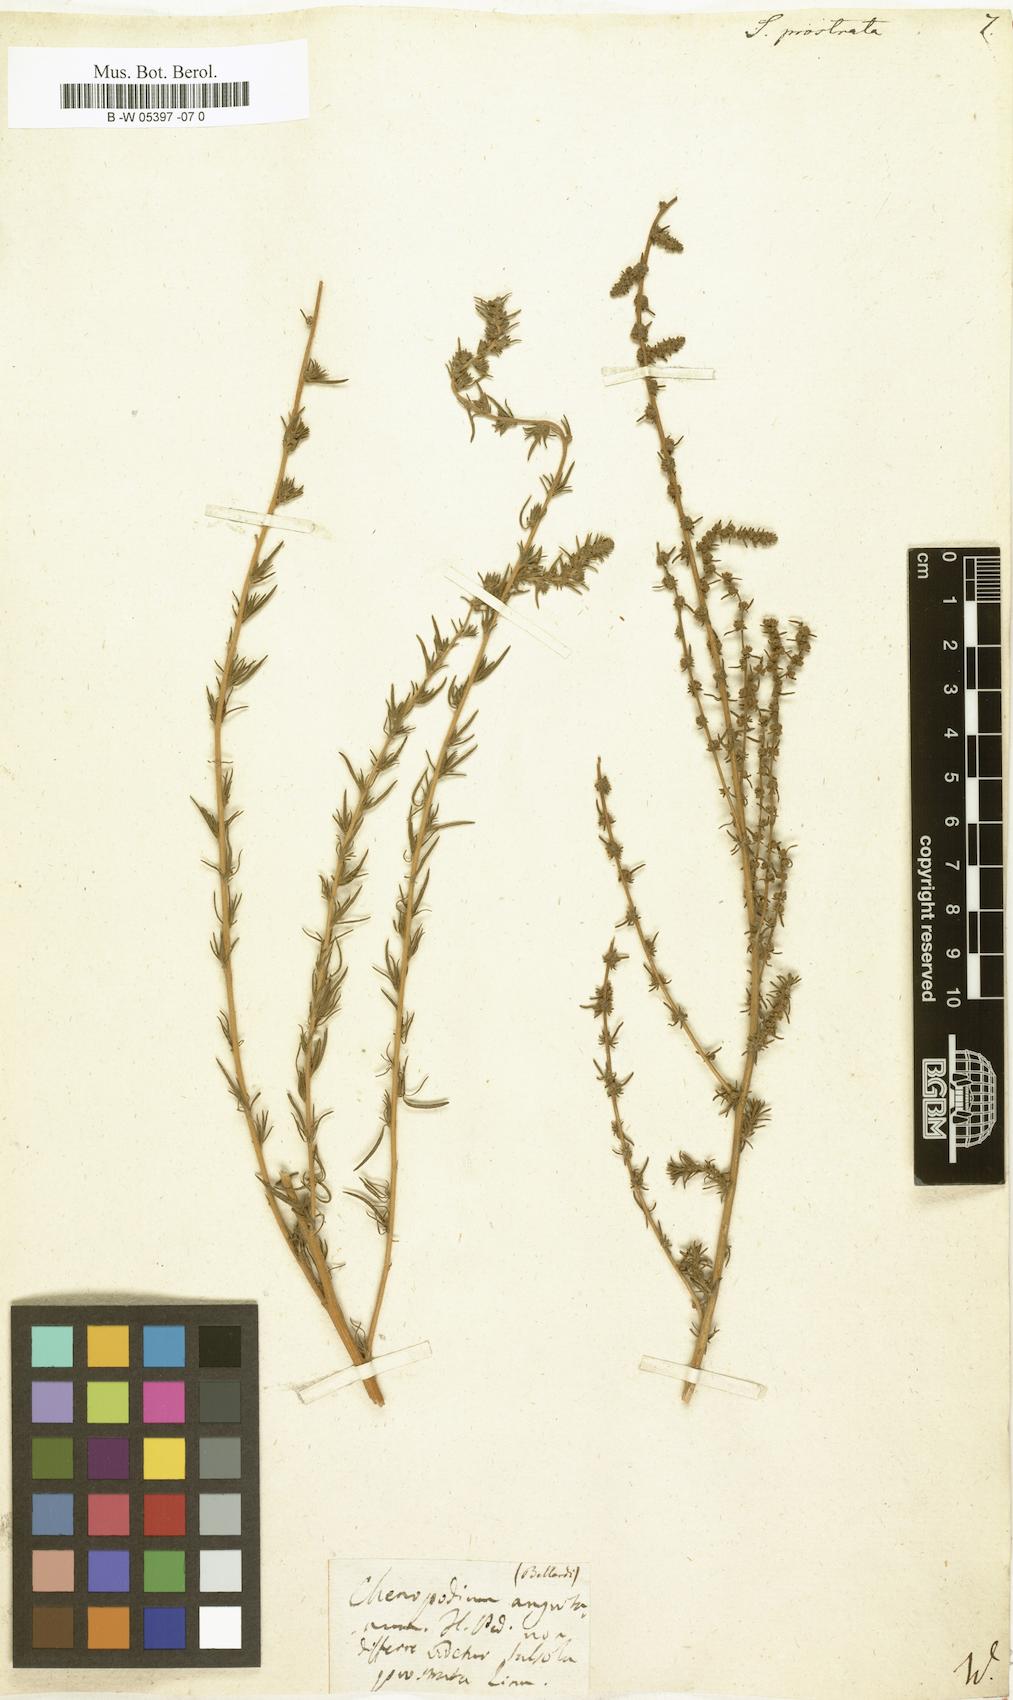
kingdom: Plantae
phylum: Tracheophyta
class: Magnoliopsida
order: Caryophyllales
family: Amaranthaceae
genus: Bassia
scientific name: Bassia prostrata
